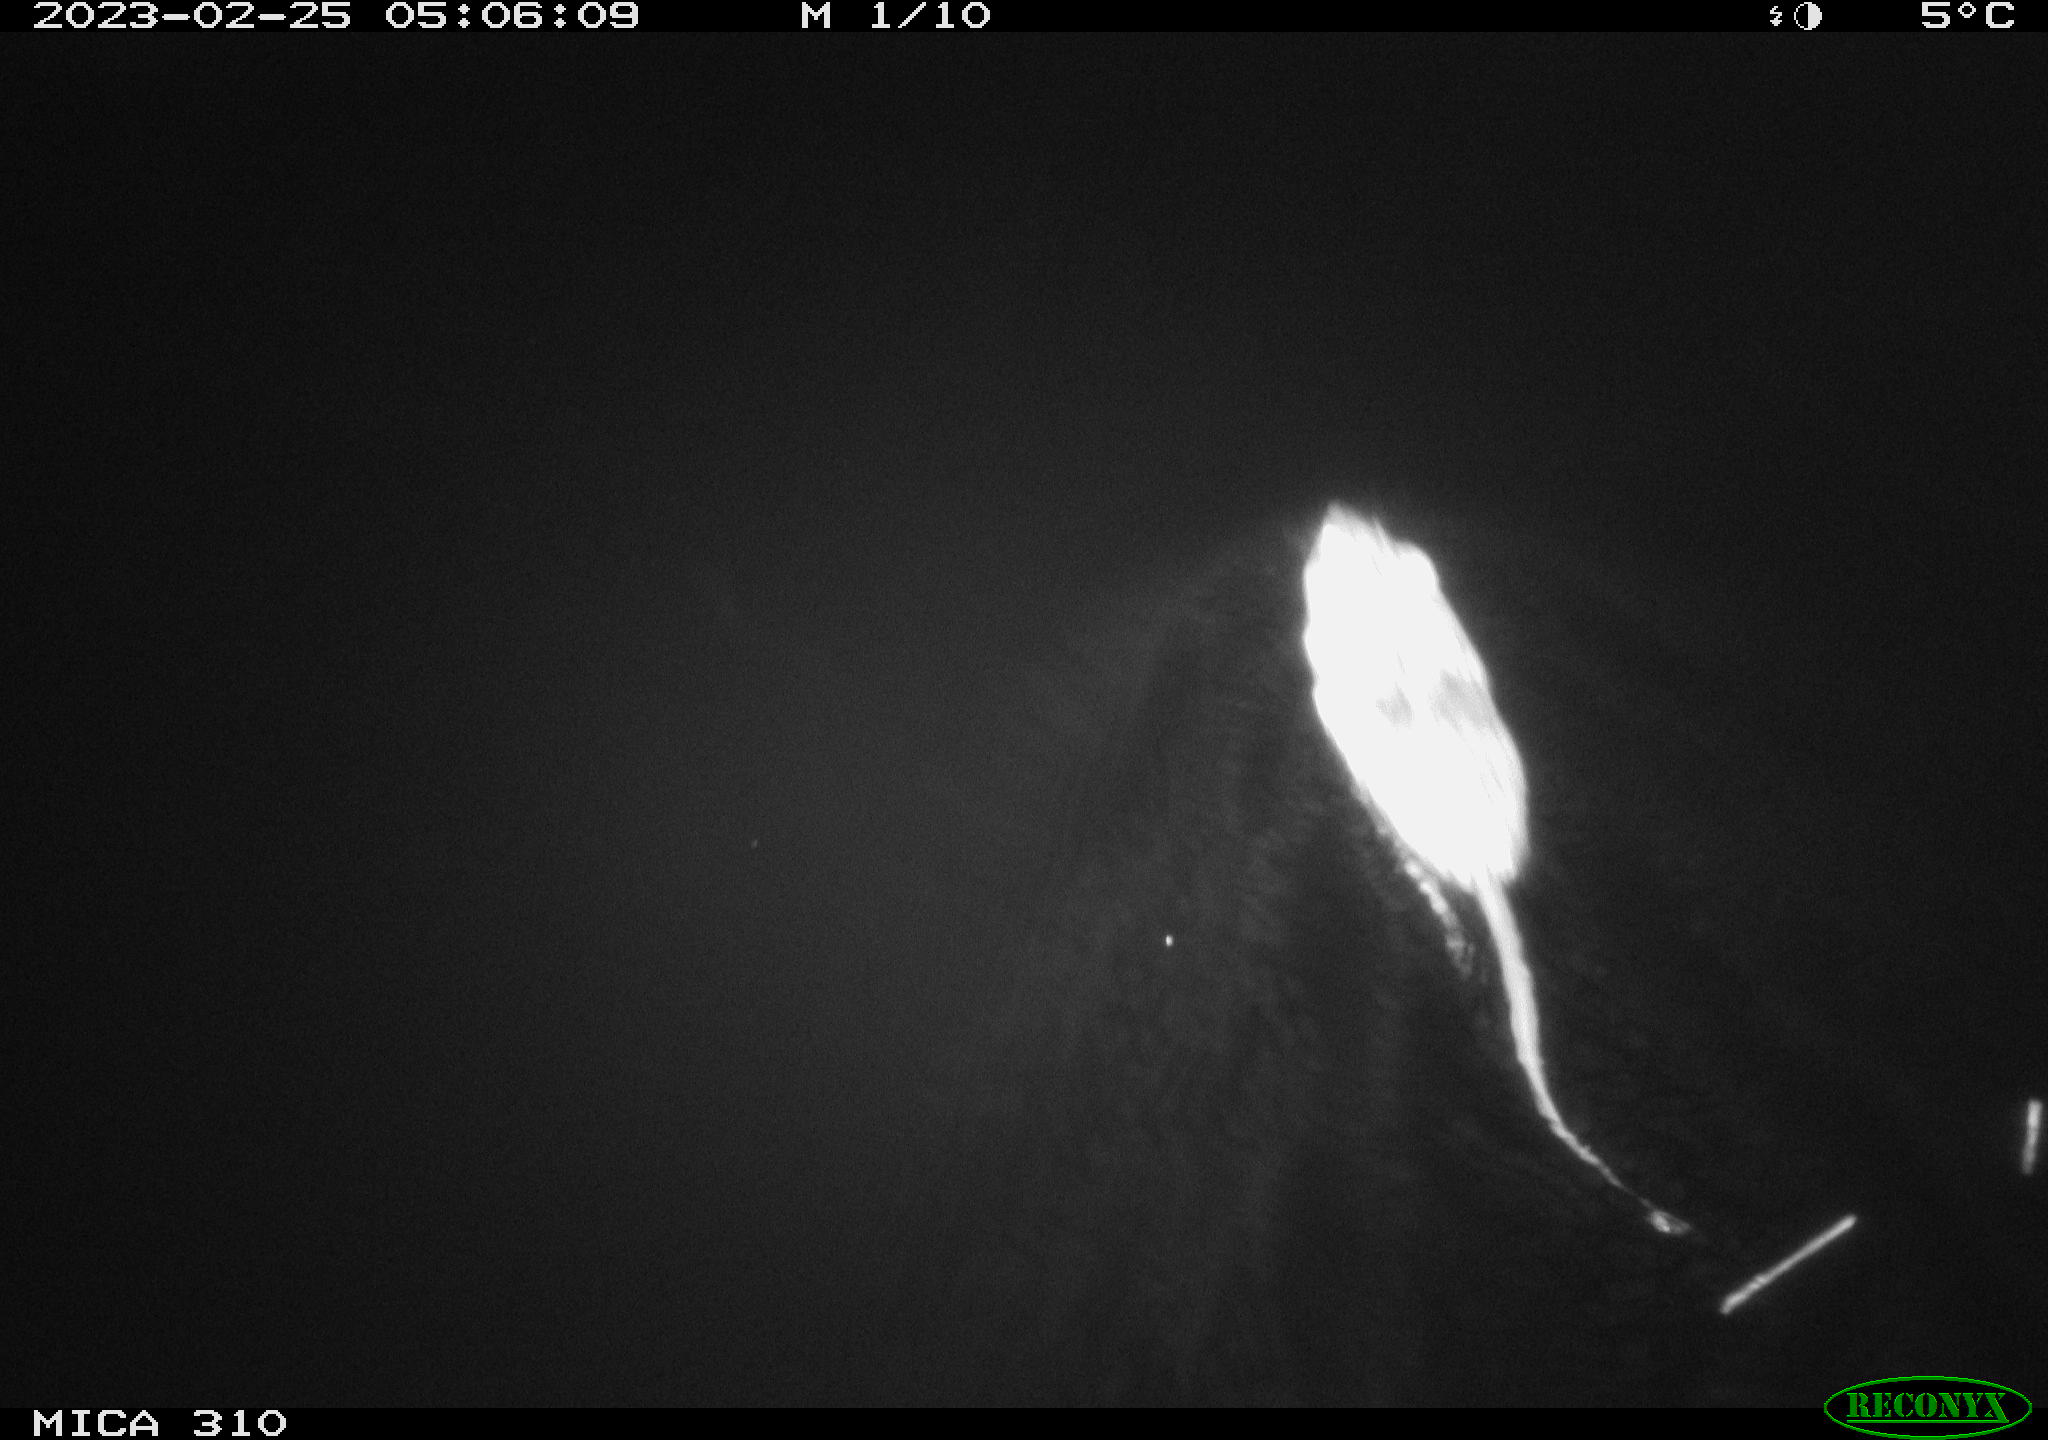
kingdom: Animalia
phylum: Chordata
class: Mammalia
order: Rodentia
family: Cricetidae
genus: Ondatra
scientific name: Ondatra zibethicus
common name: Muskrat
